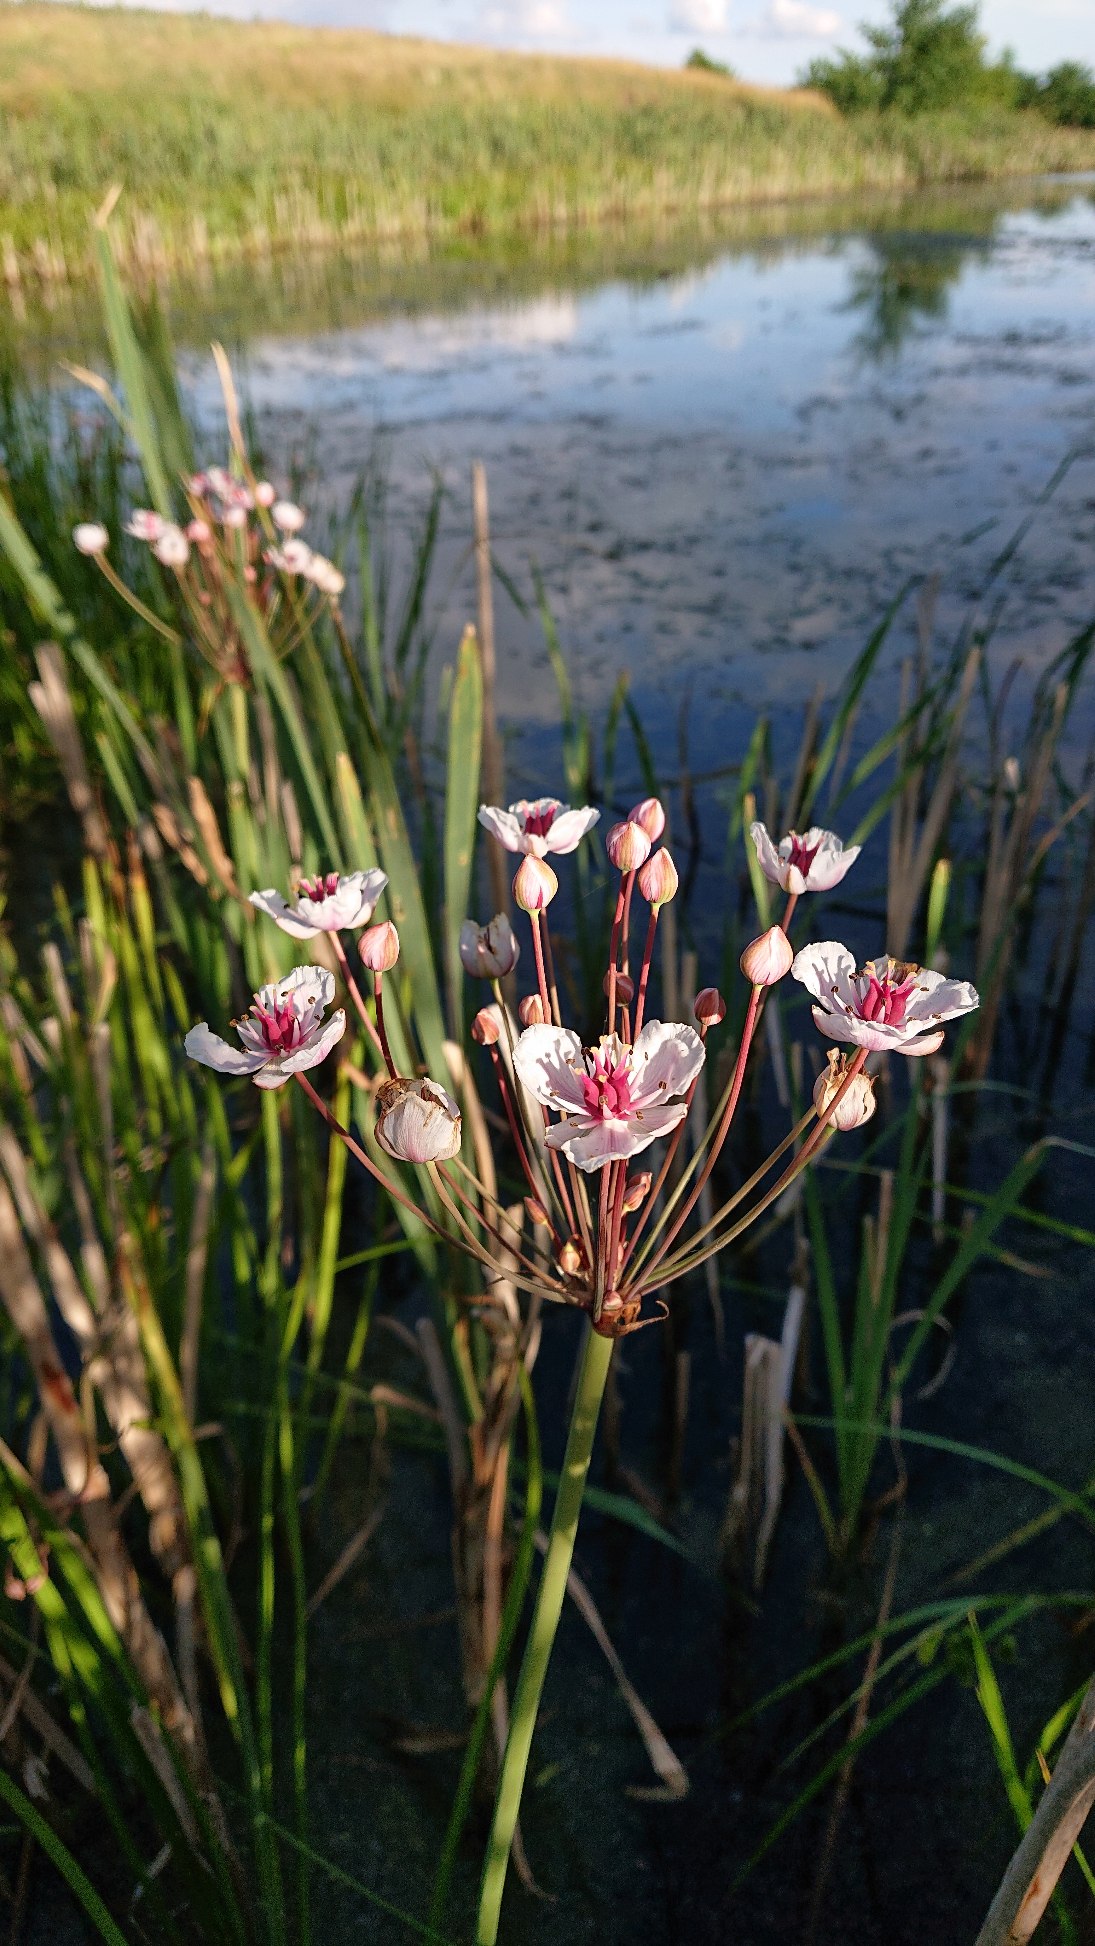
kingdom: Plantae
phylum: Tracheophyta
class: Liliopsida
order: Alismatales
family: Butomaceae
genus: Butomus
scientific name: Butomus umbellatus
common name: Brudelys
